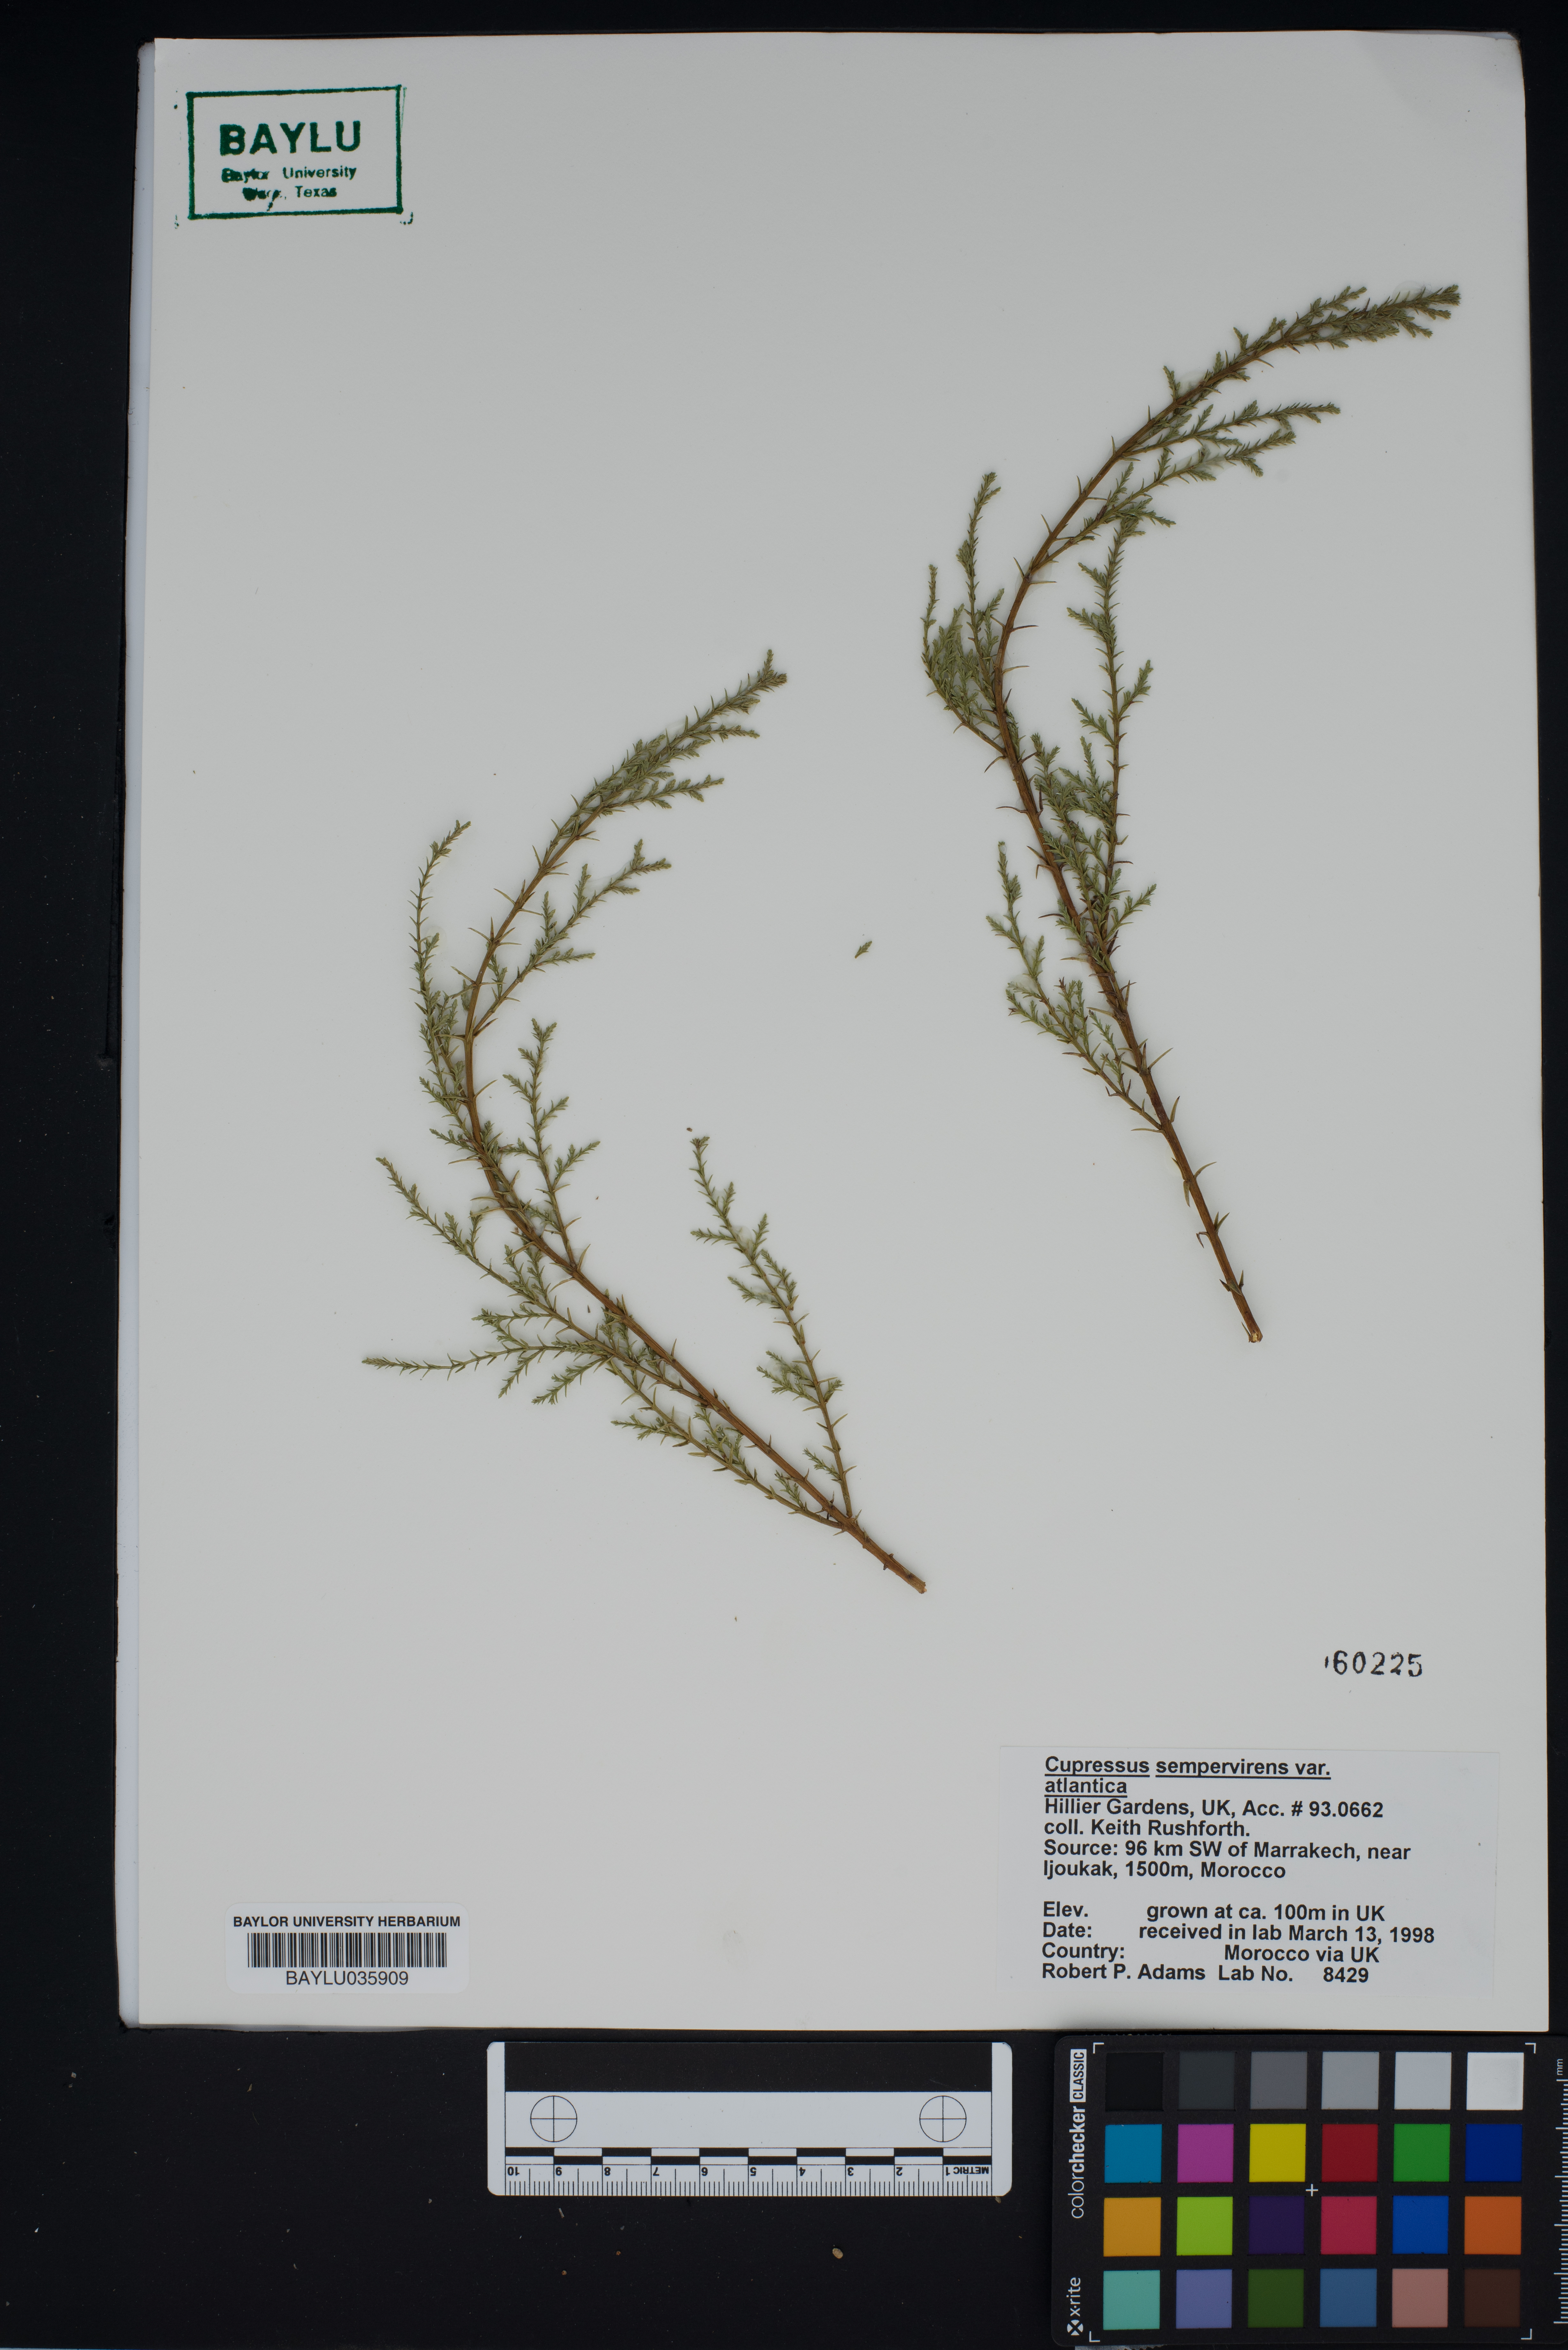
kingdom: Plantae
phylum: Tracheophyta
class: Pinopsida
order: Pinales
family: Cupressaceae
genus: Cupressus
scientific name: Cupressus dupreziana
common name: Moroccan cypress
